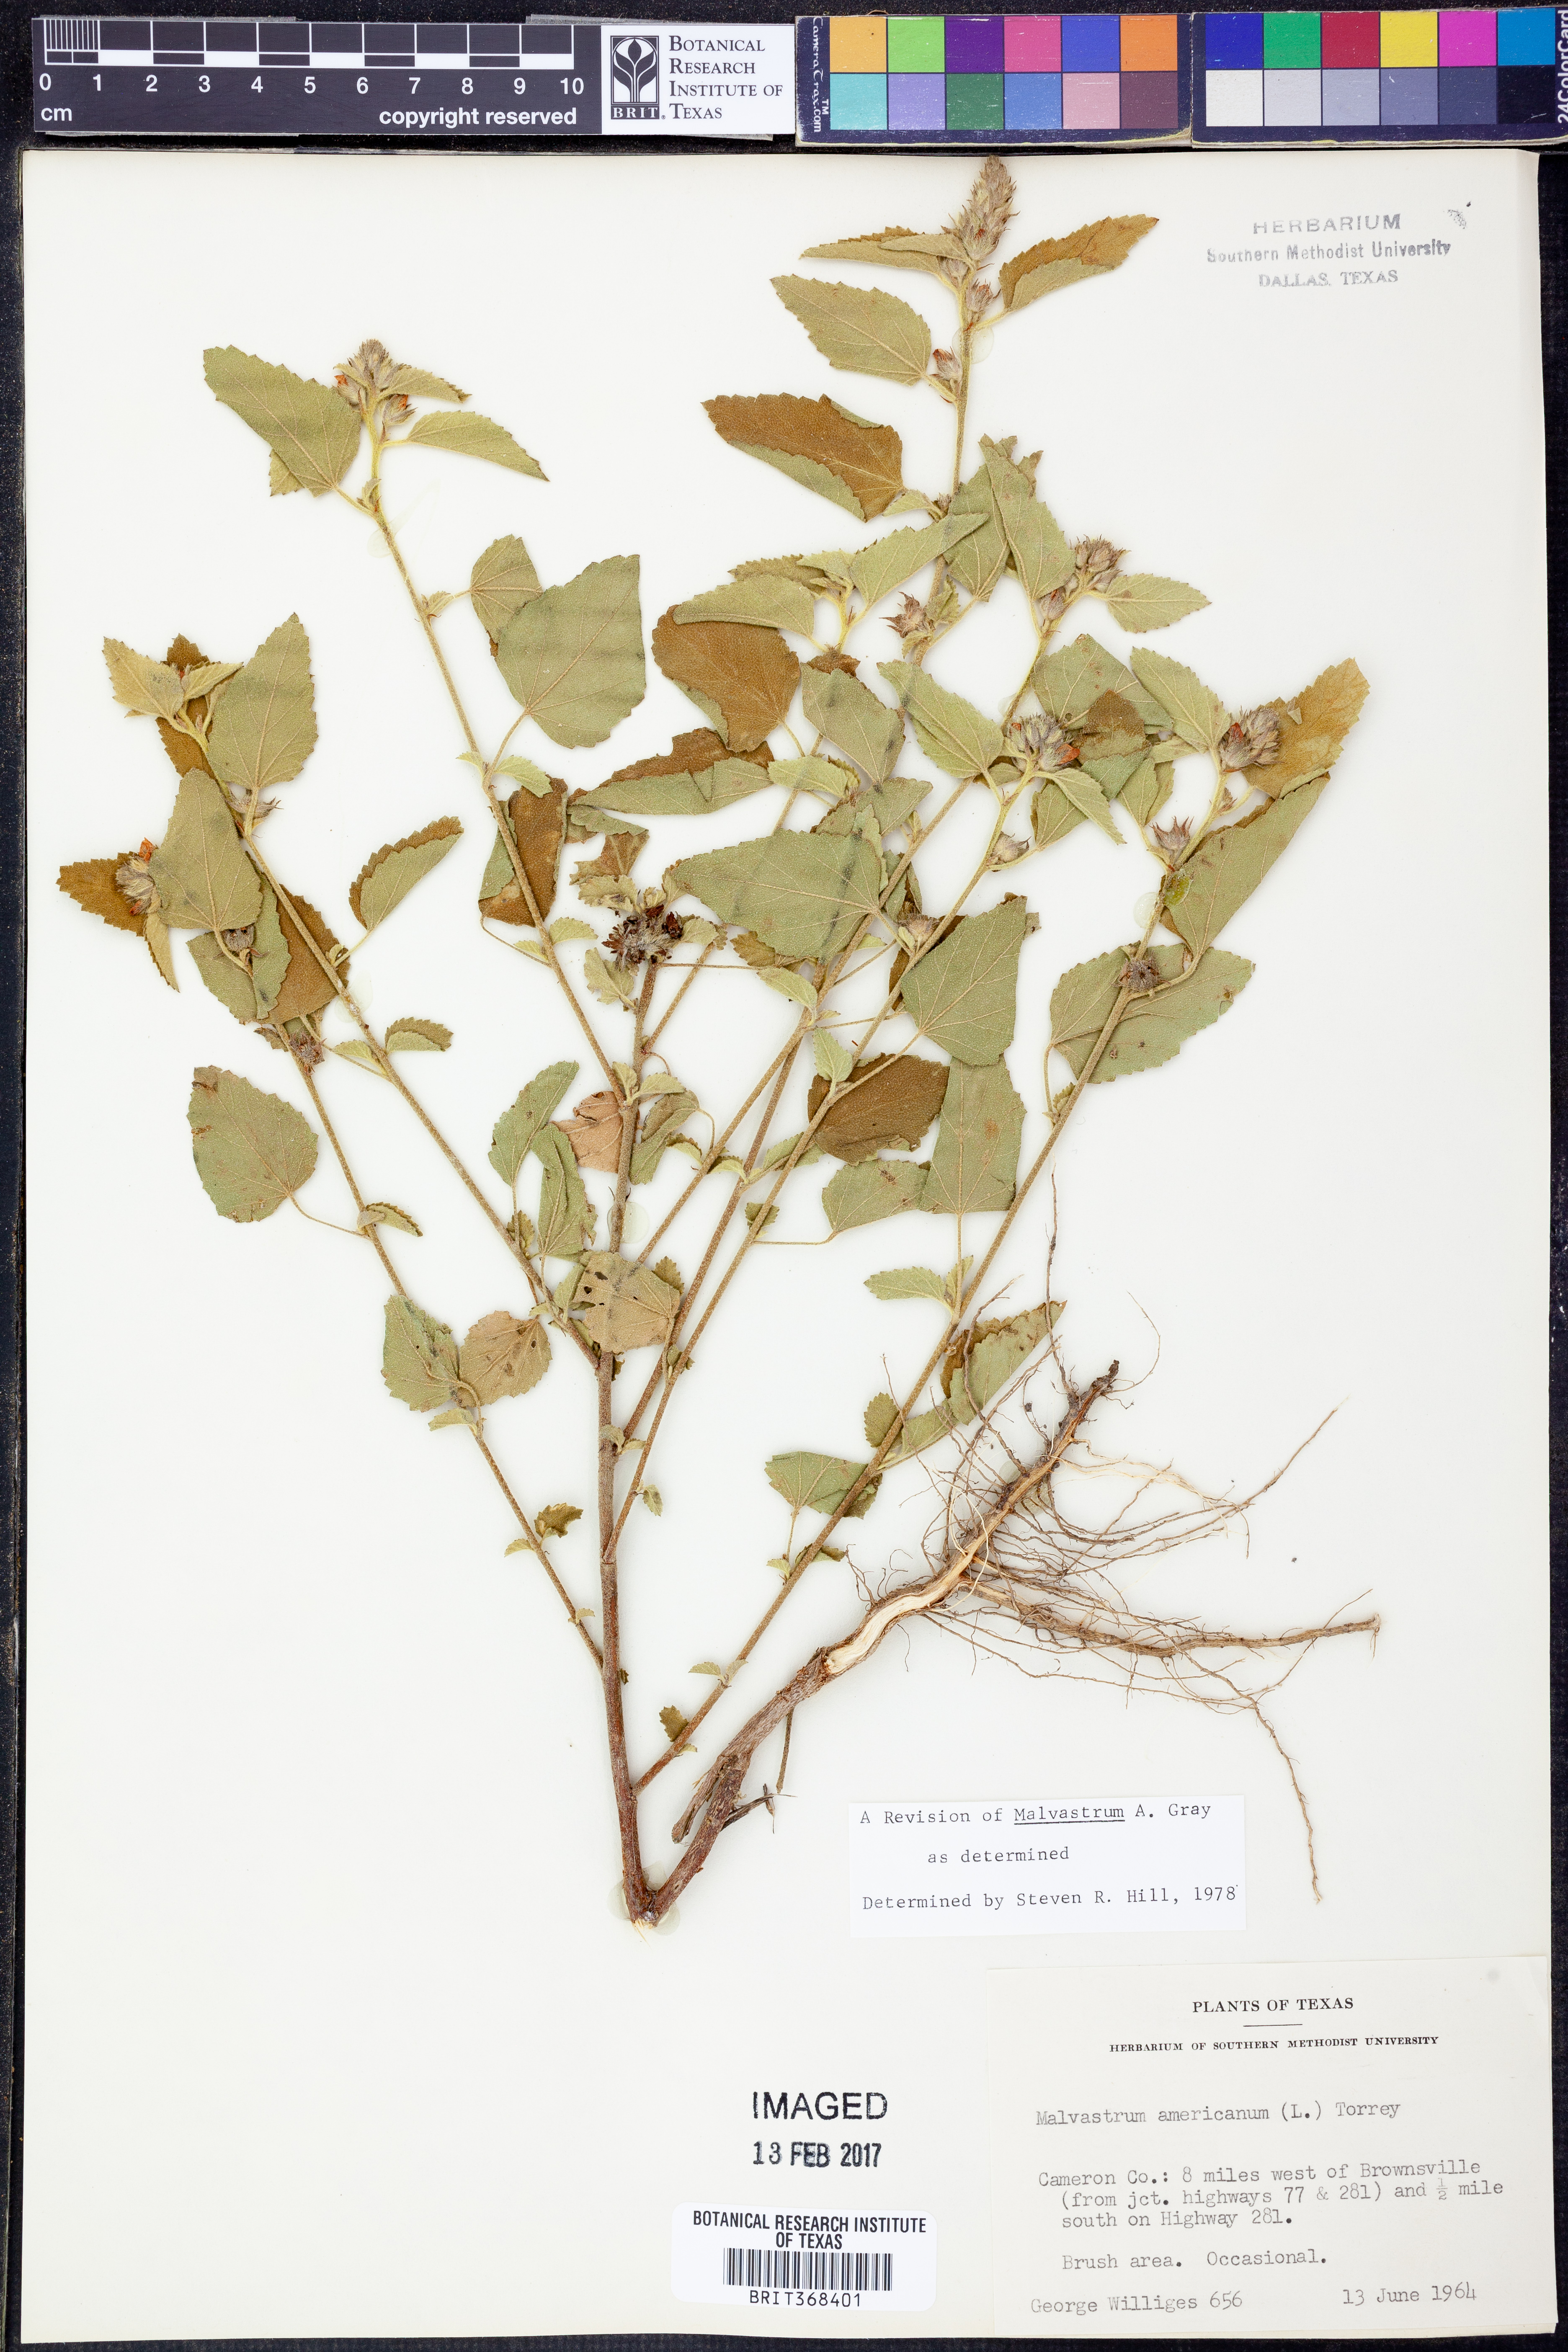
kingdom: Plantae
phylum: Tracheophyta
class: Magnoliopsida
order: Malvales
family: Malvaceae
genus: Malvastrum
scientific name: Malvastrum americanum
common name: Spiked malvastrum
